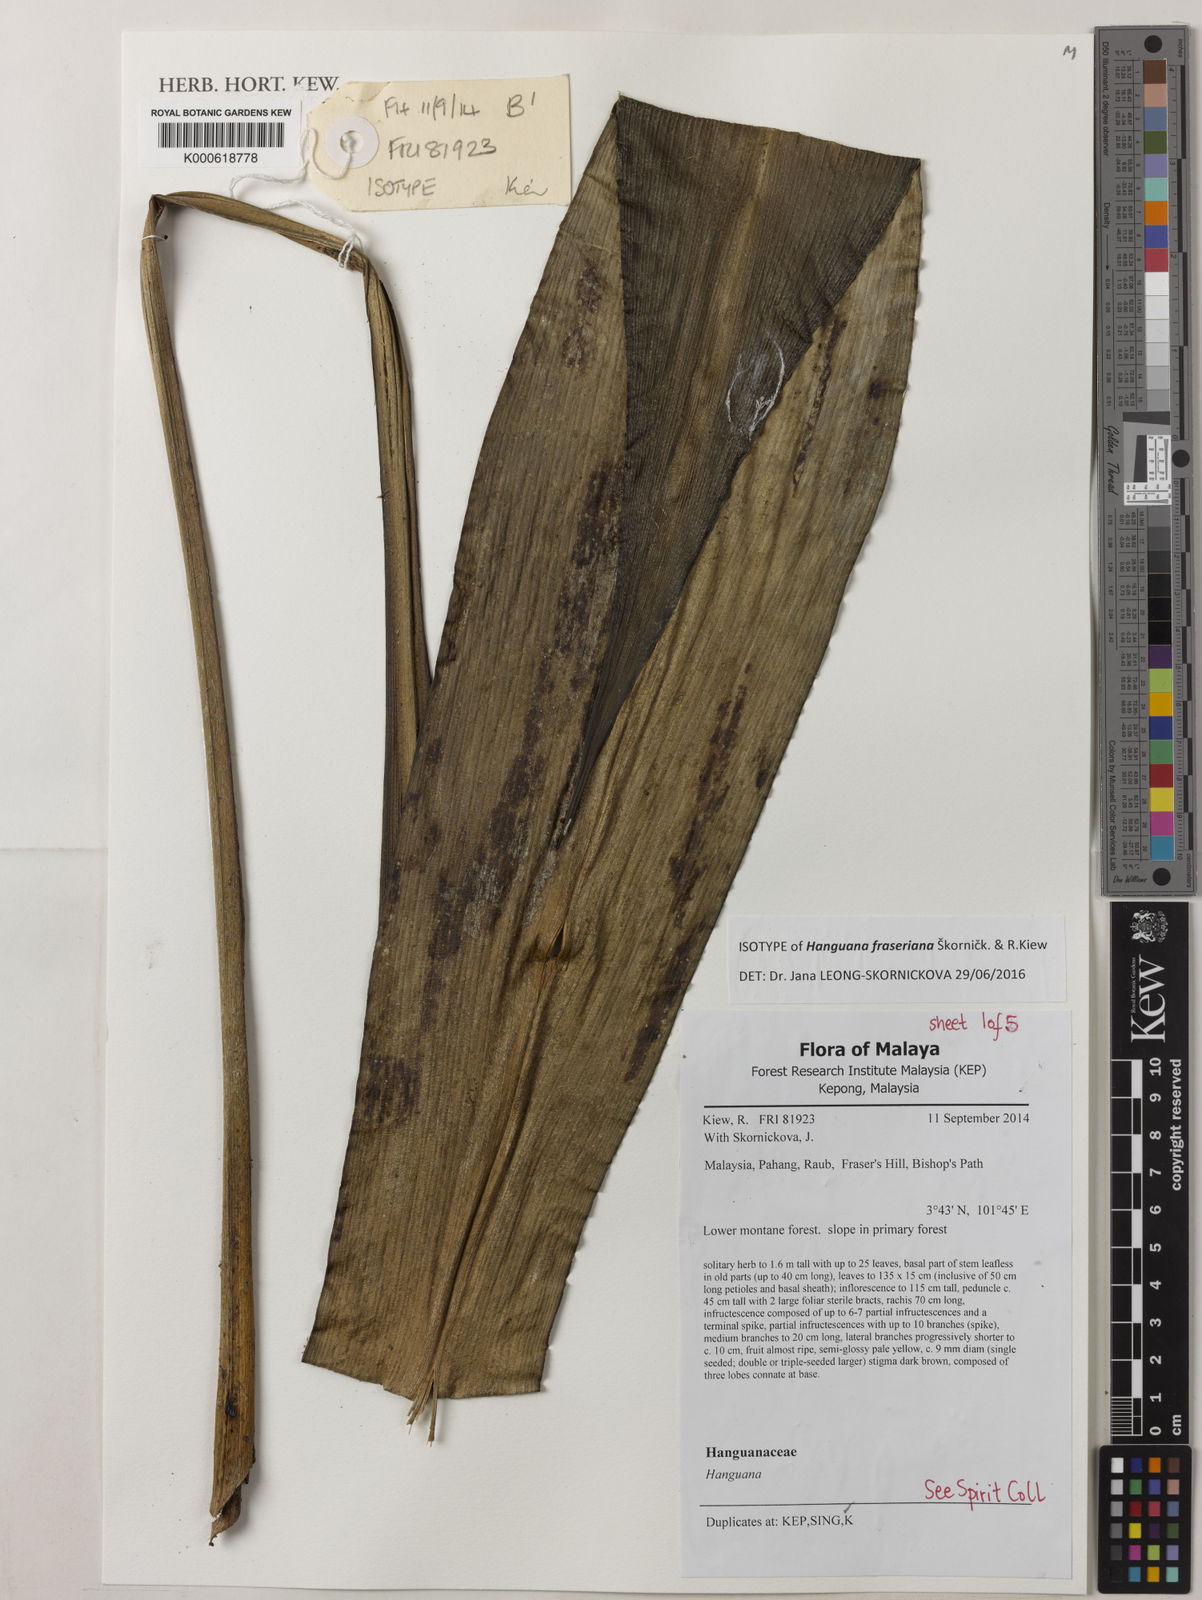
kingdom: Plantae
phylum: Tracheophyta
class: Liliopsida
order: Commelinales
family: Hanguanaceae
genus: Hanguana
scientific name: Hanguana fraseriana
